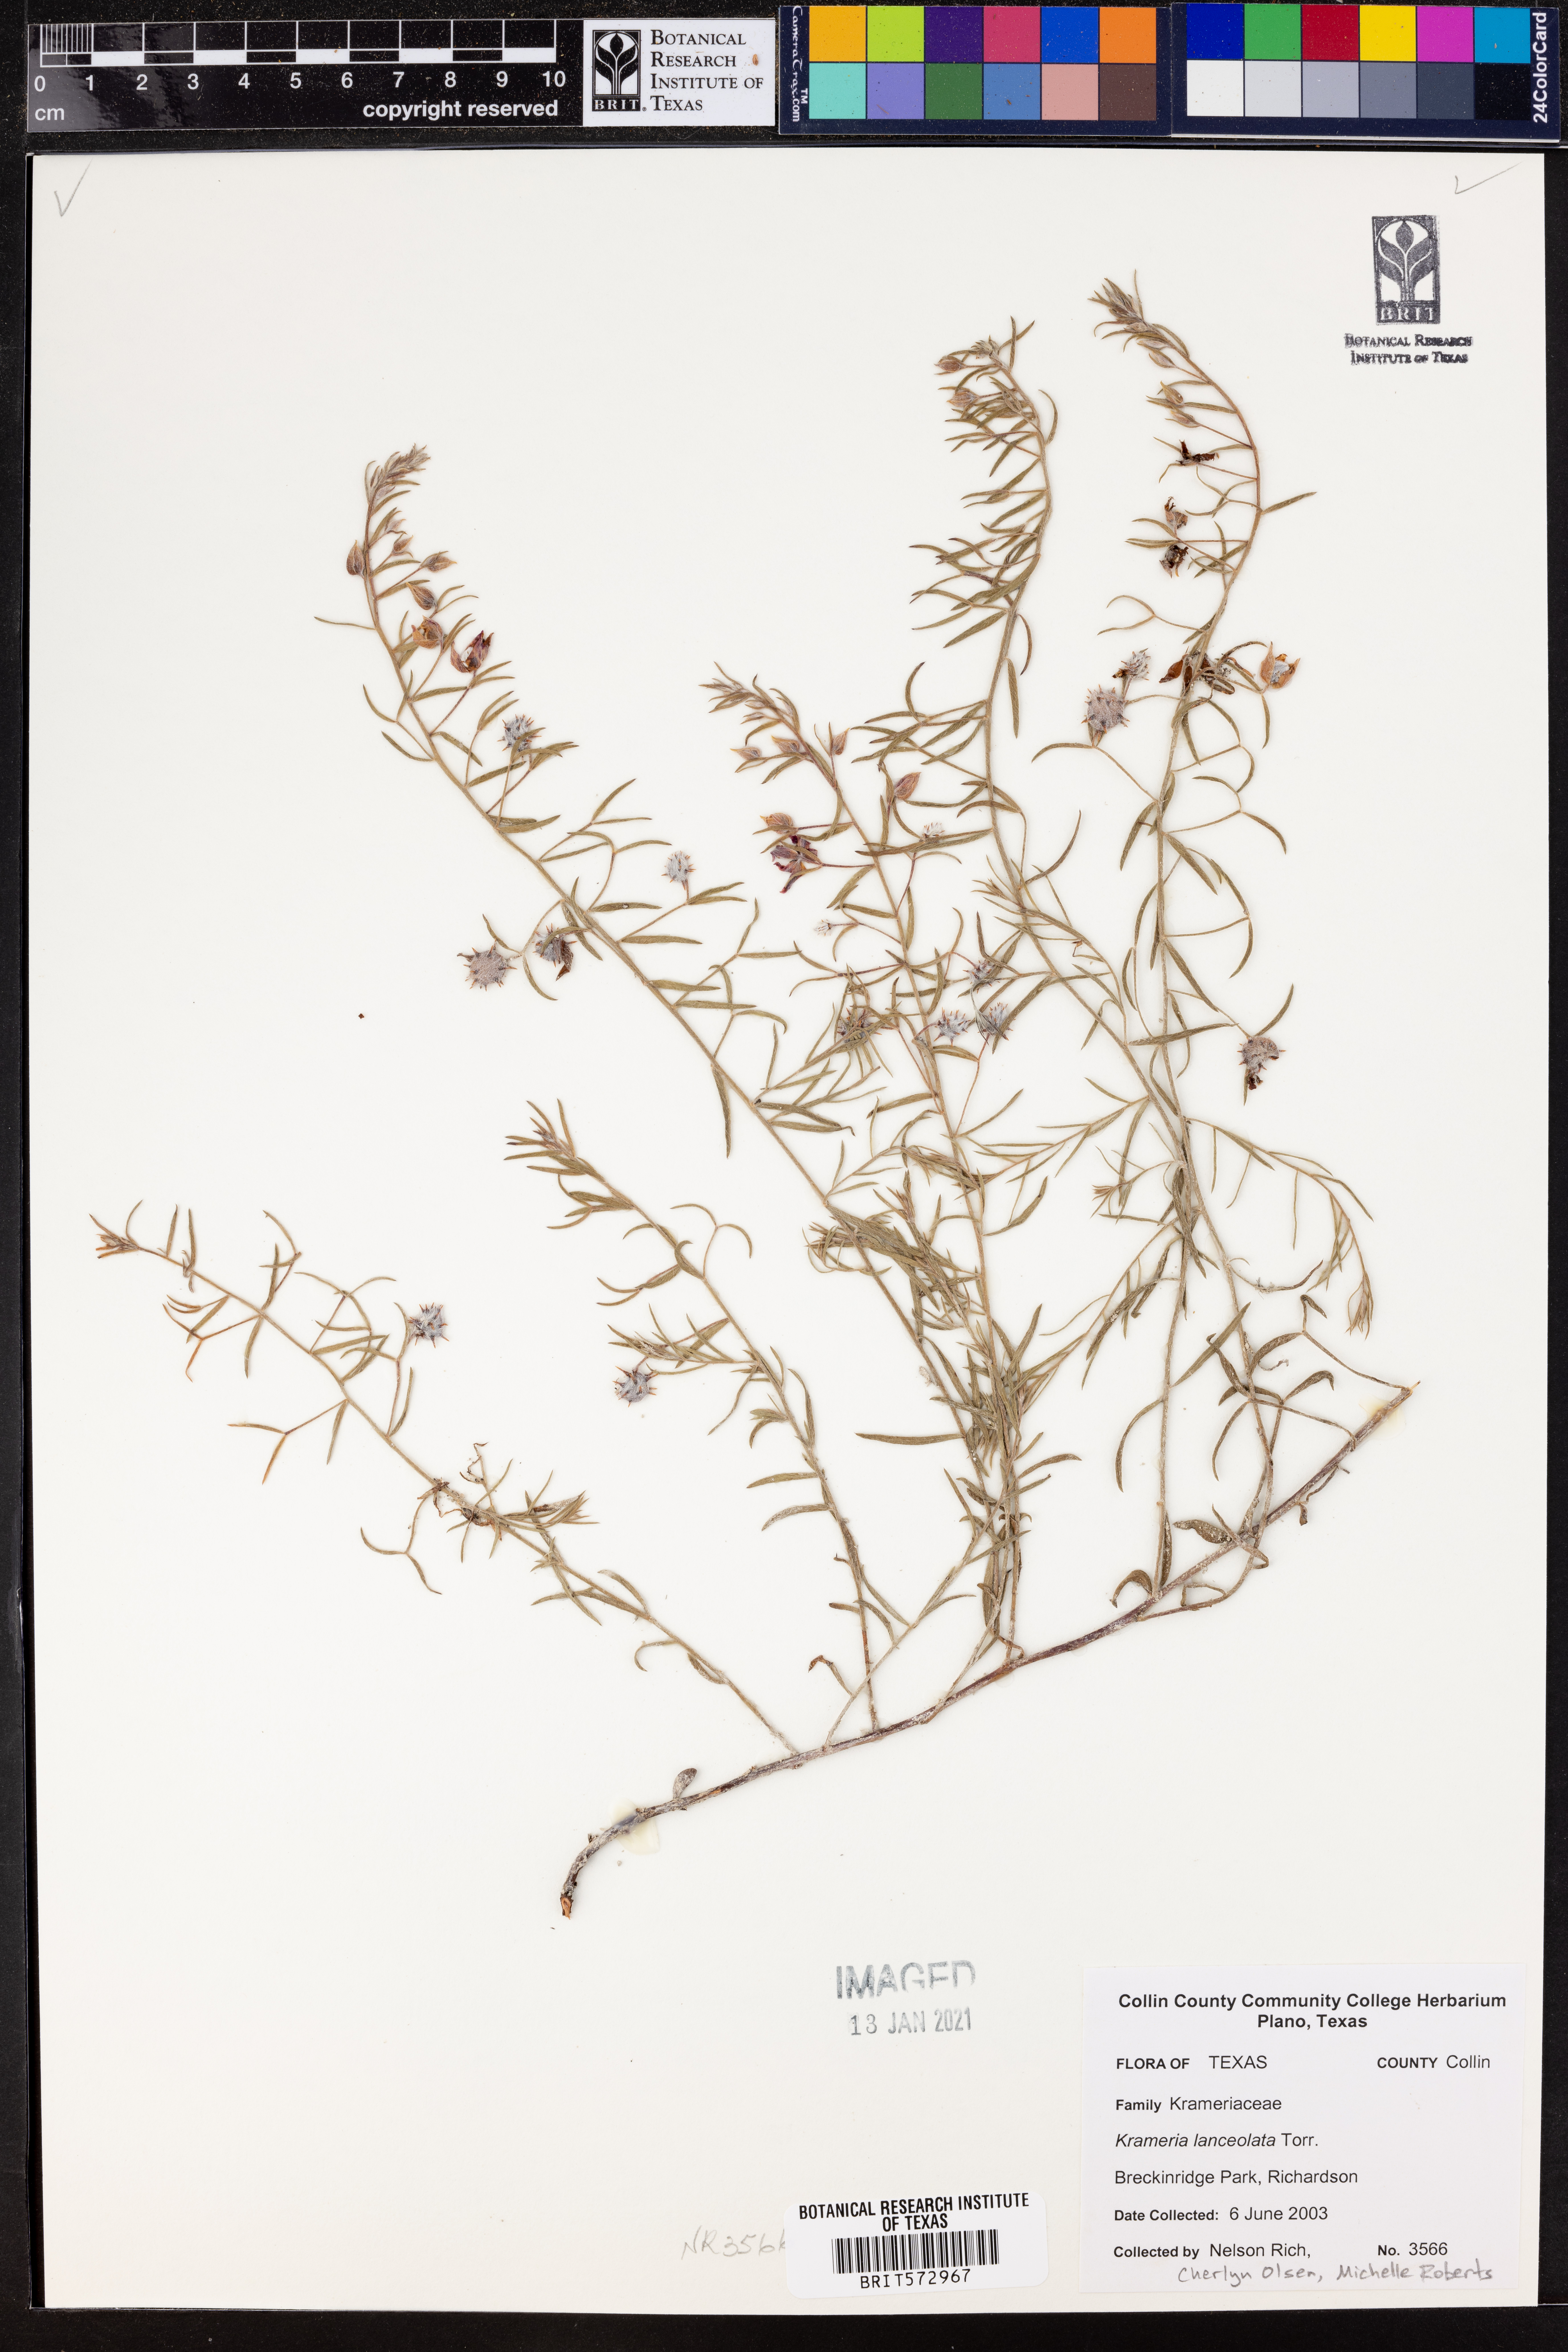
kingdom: Plantae
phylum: Tracheophyta
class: Magnoliopsida
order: Zygophyllales
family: Krameriaceae
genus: Krameria
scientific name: Krameria lanceolata
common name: Ratany
